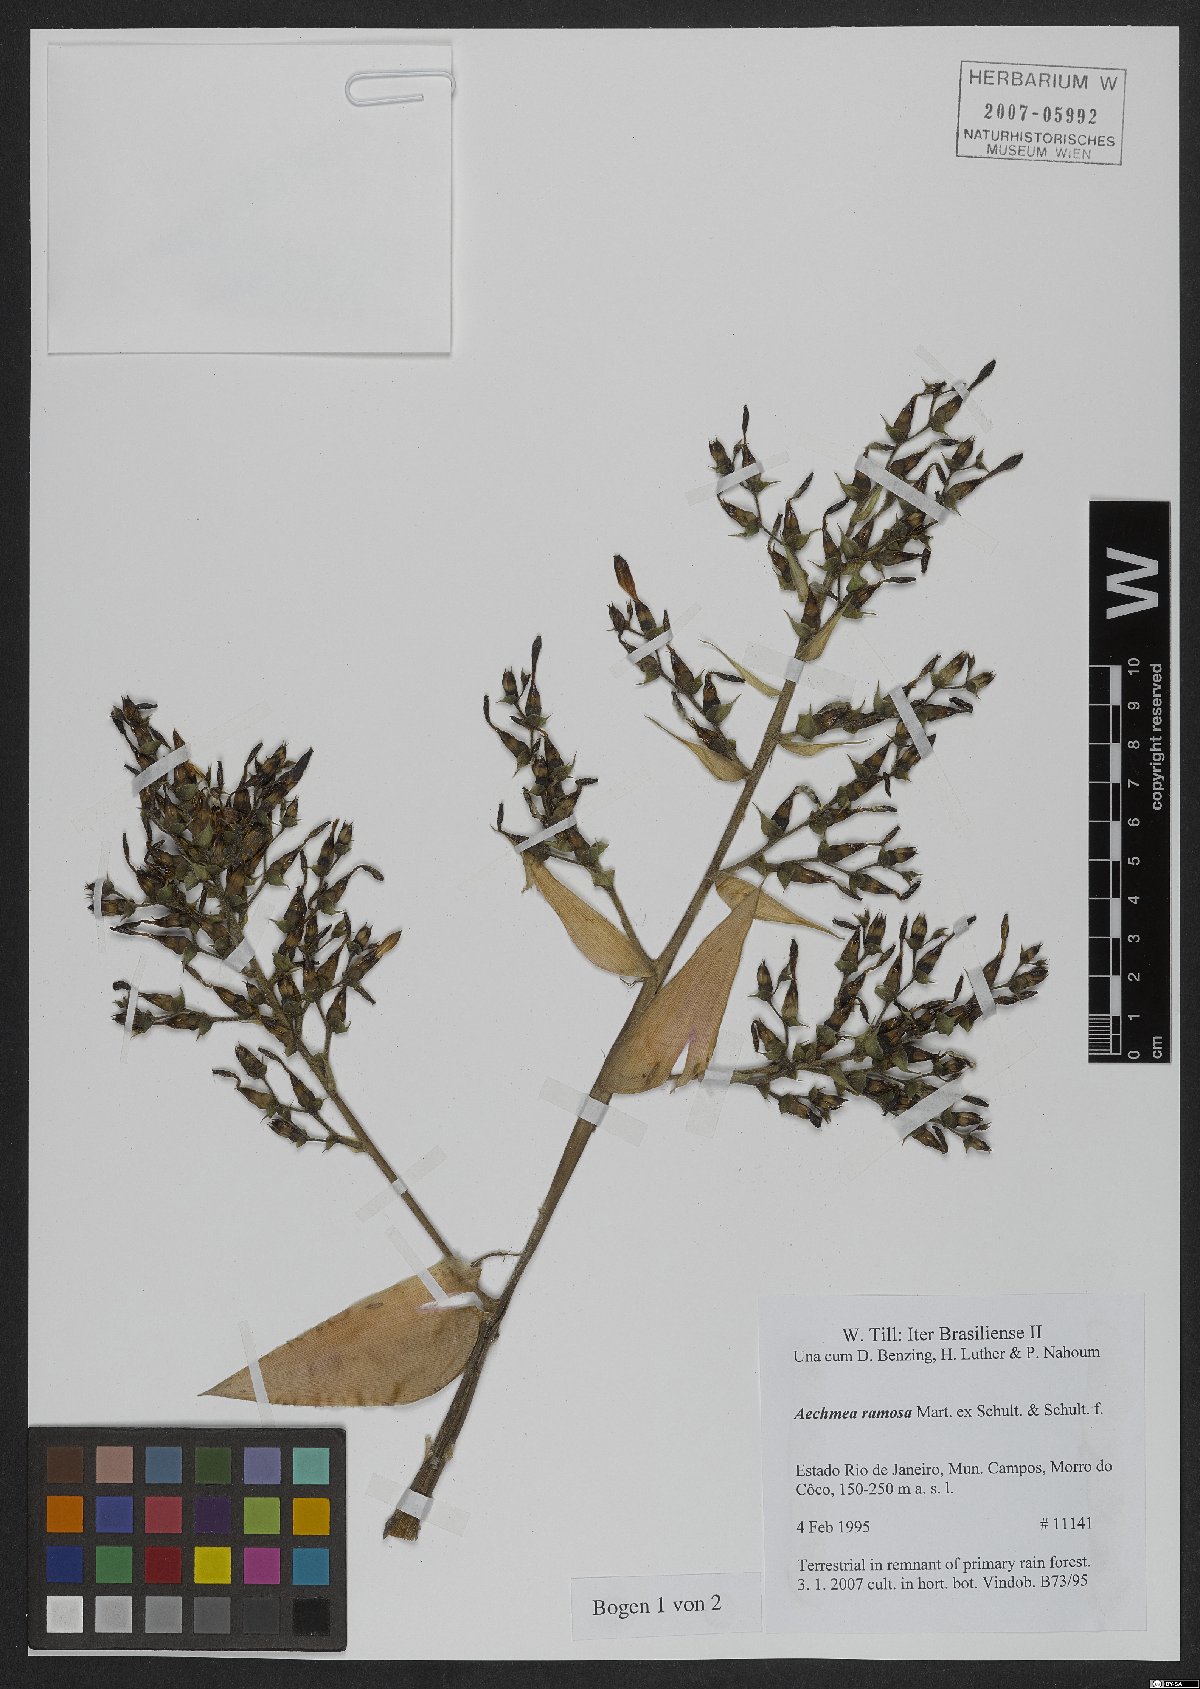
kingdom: Plantae
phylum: Tracheophyta
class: Liliopsida
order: Poales
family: Bromeliaceae
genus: Aechmea
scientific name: Aechmea ramosa
